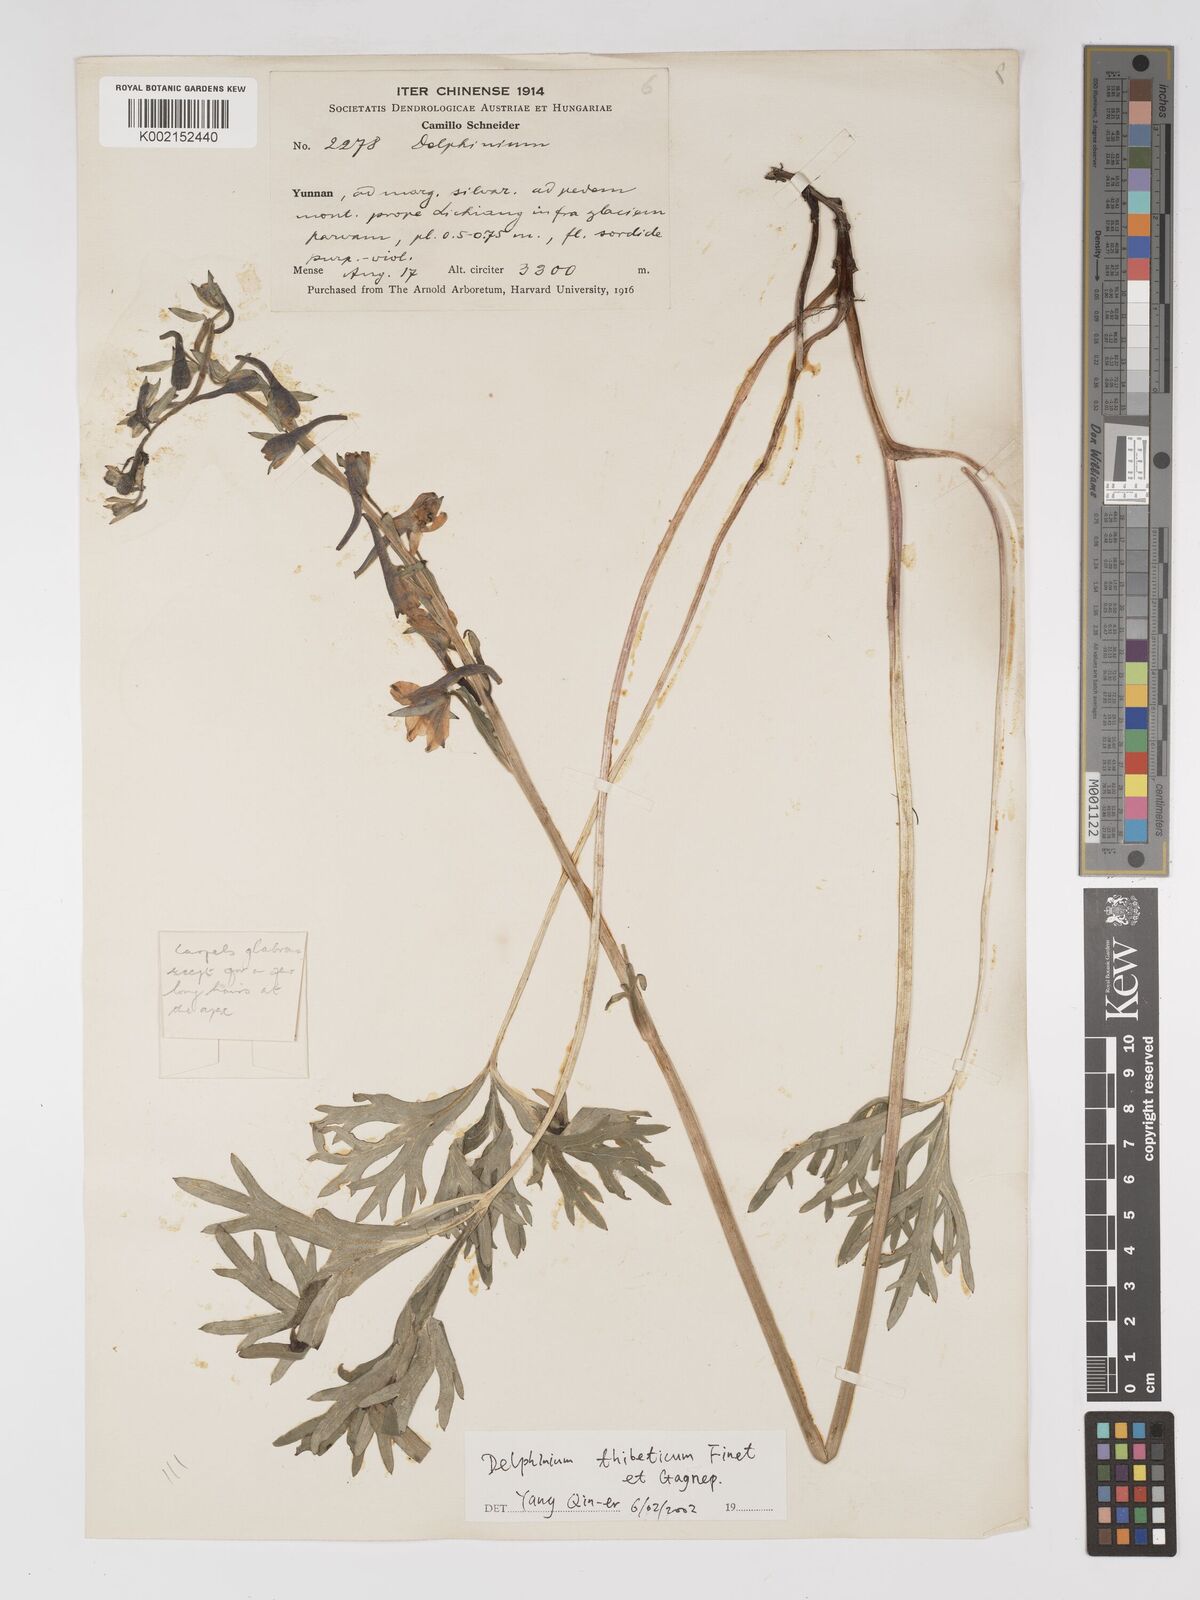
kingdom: Plantae
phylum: Tracheophyta
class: Magnoliopsida
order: Ranunculales
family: Ranunculaceae
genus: Delphinium
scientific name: Delphinium thibeticum
